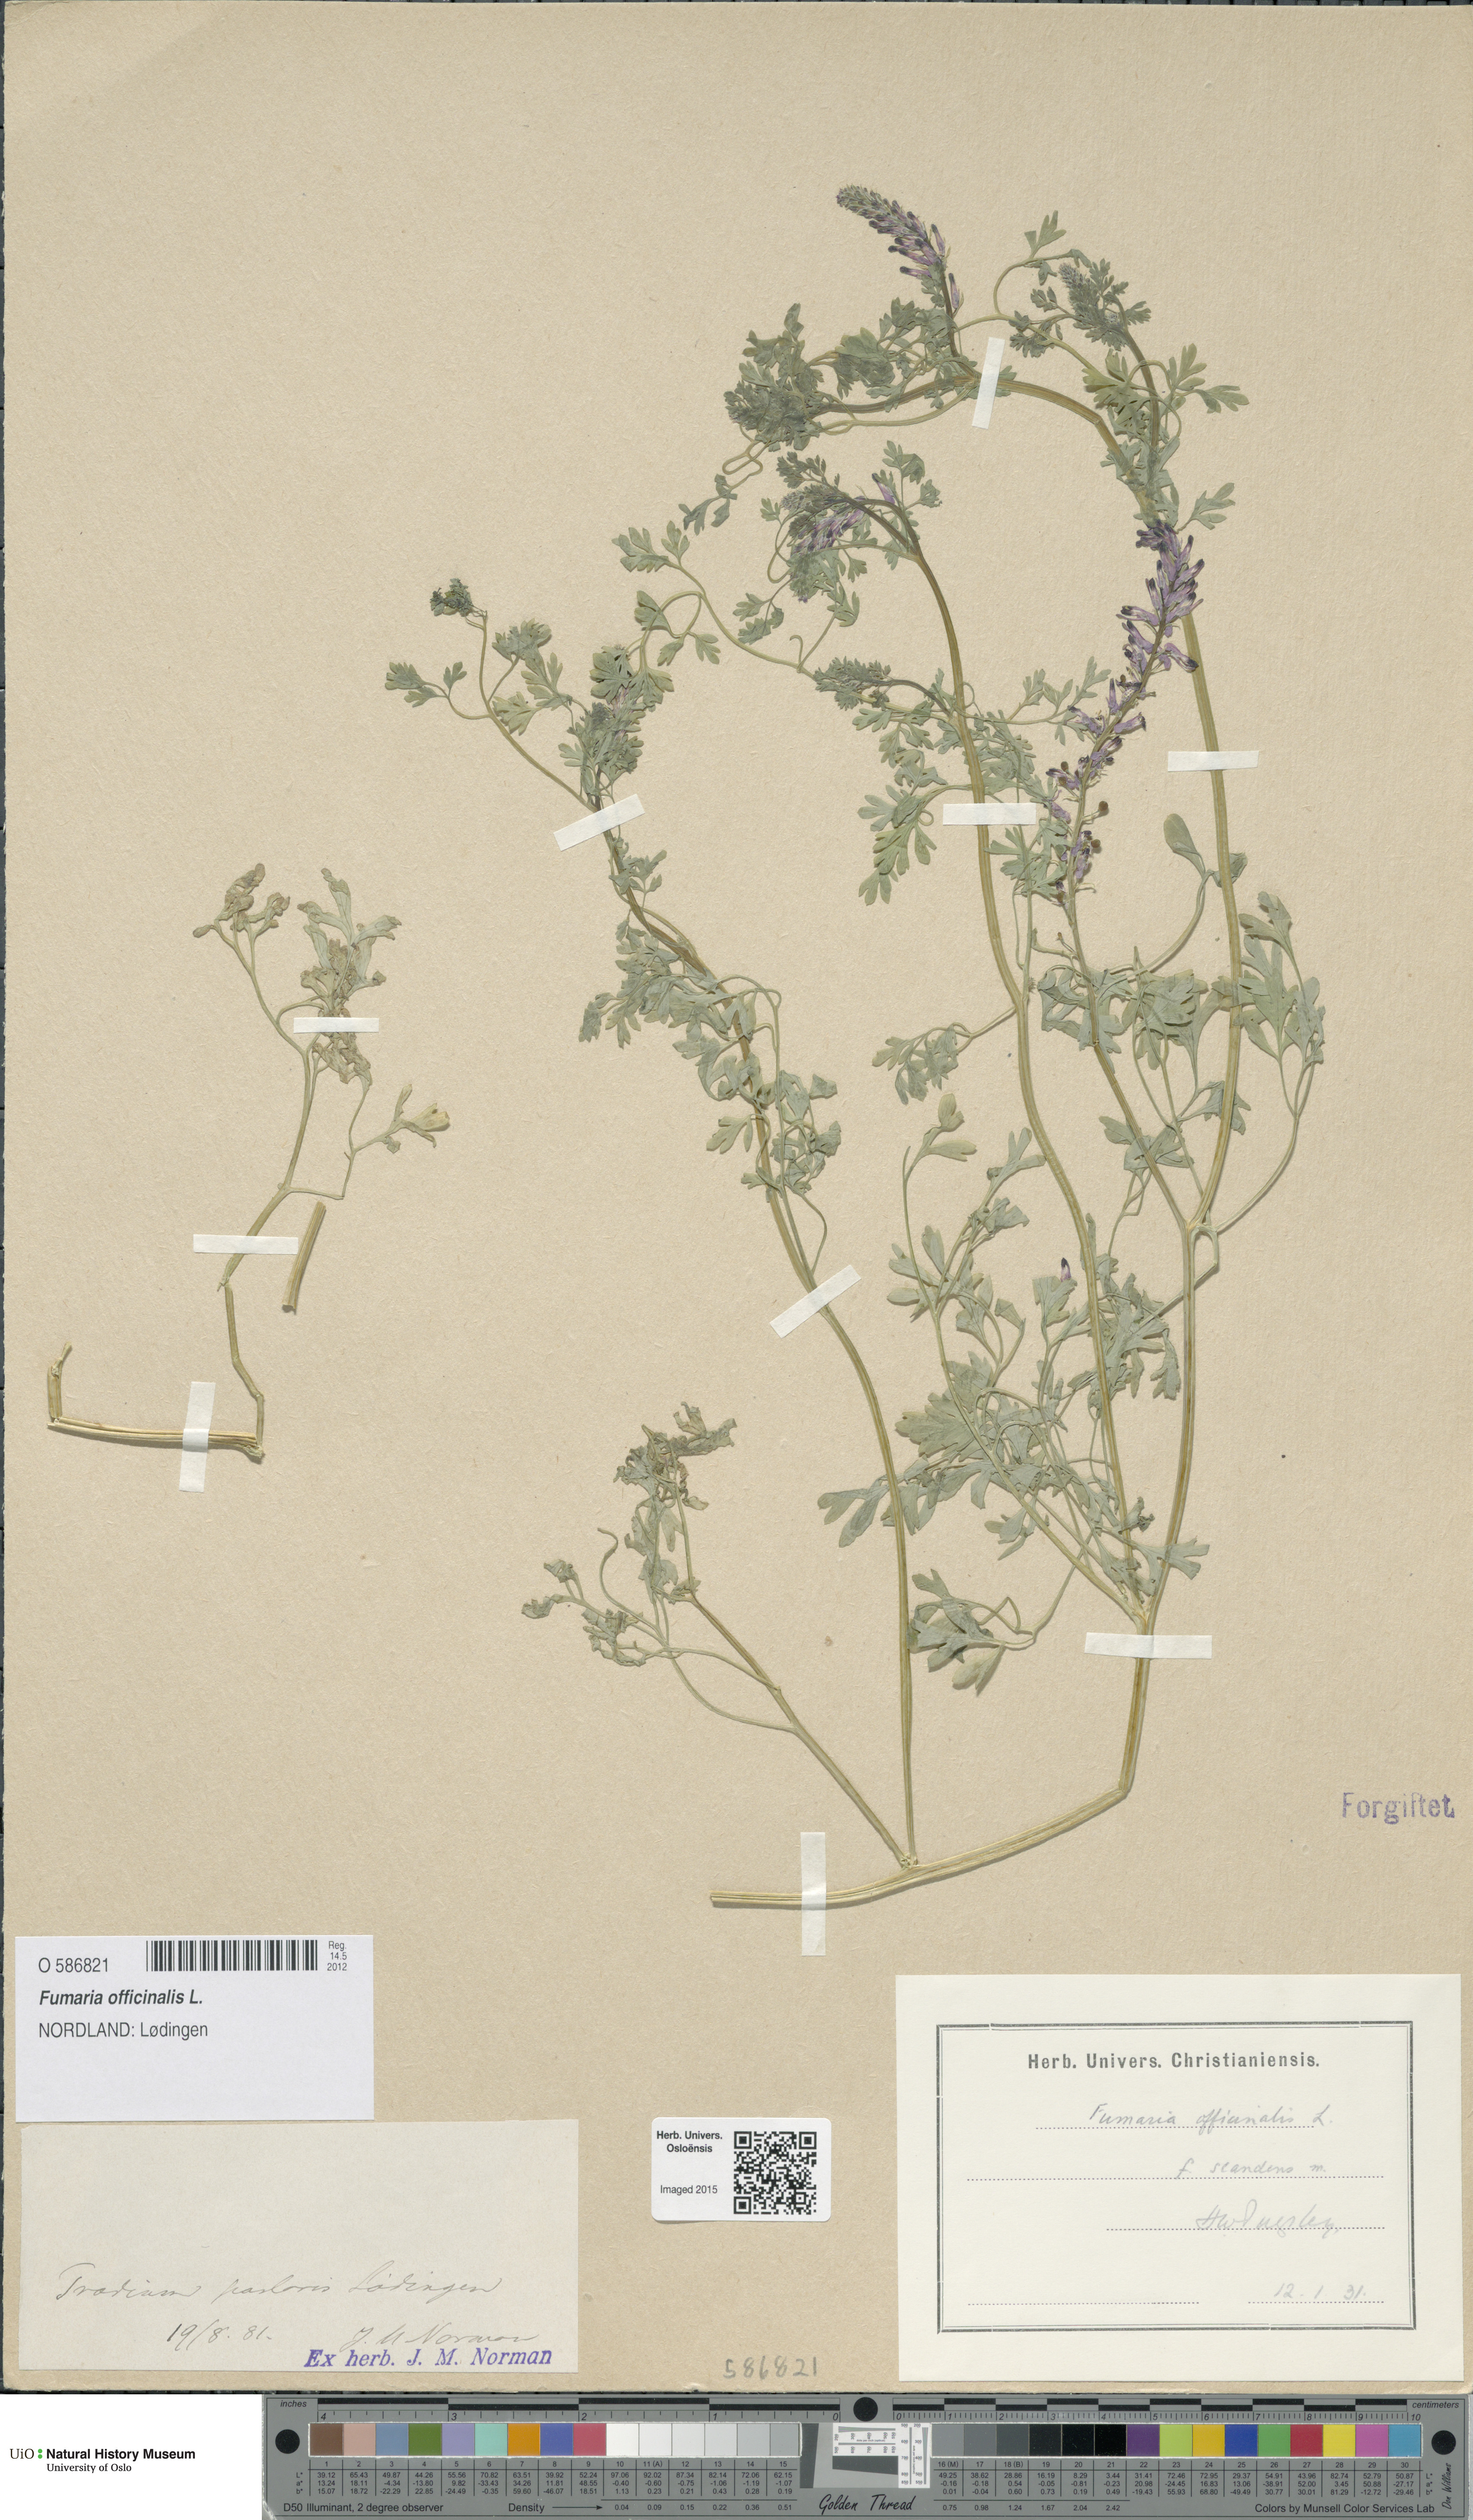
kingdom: Plantae
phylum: Tracheophyta
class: Magnoliopsida
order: Ranunculales
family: Papaveraceae
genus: Fumaria
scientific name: Fumaria officinalis
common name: Common fumitory
